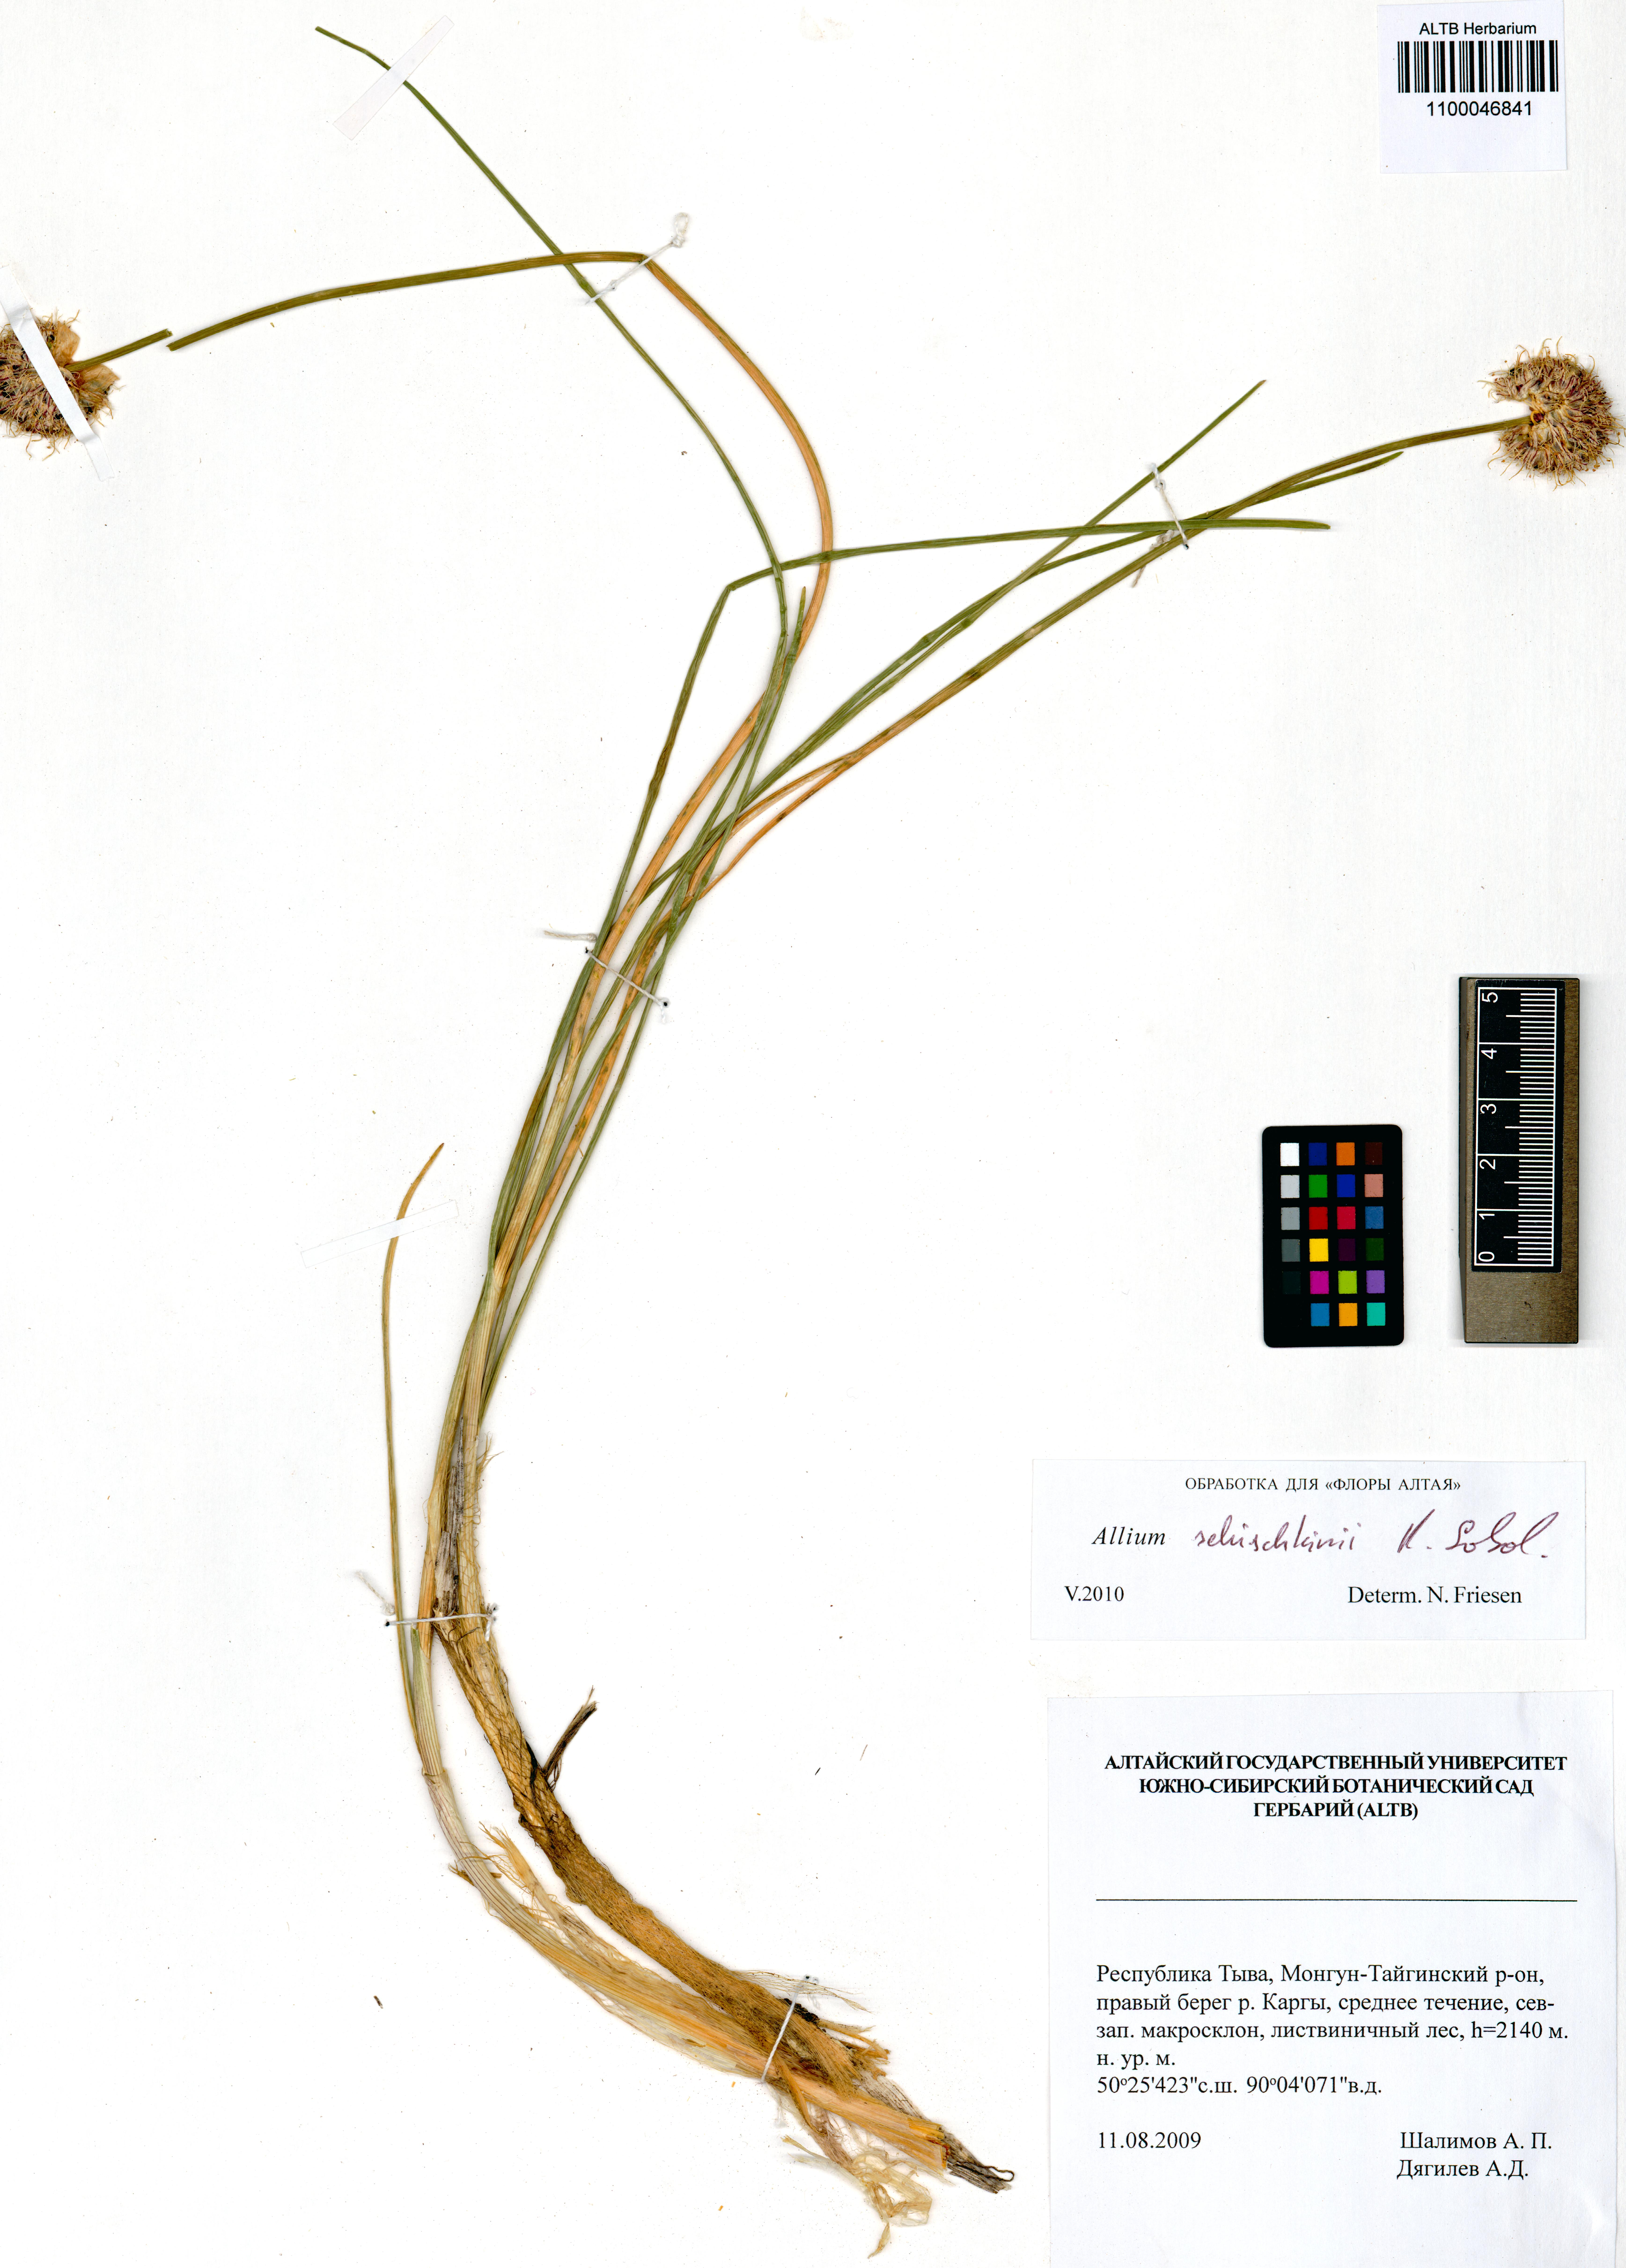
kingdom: Plantae
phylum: Tracheophyta
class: Liliopsida
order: Asparagales
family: Amaryllidaceae
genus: Allium
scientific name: Allium schischkinii
